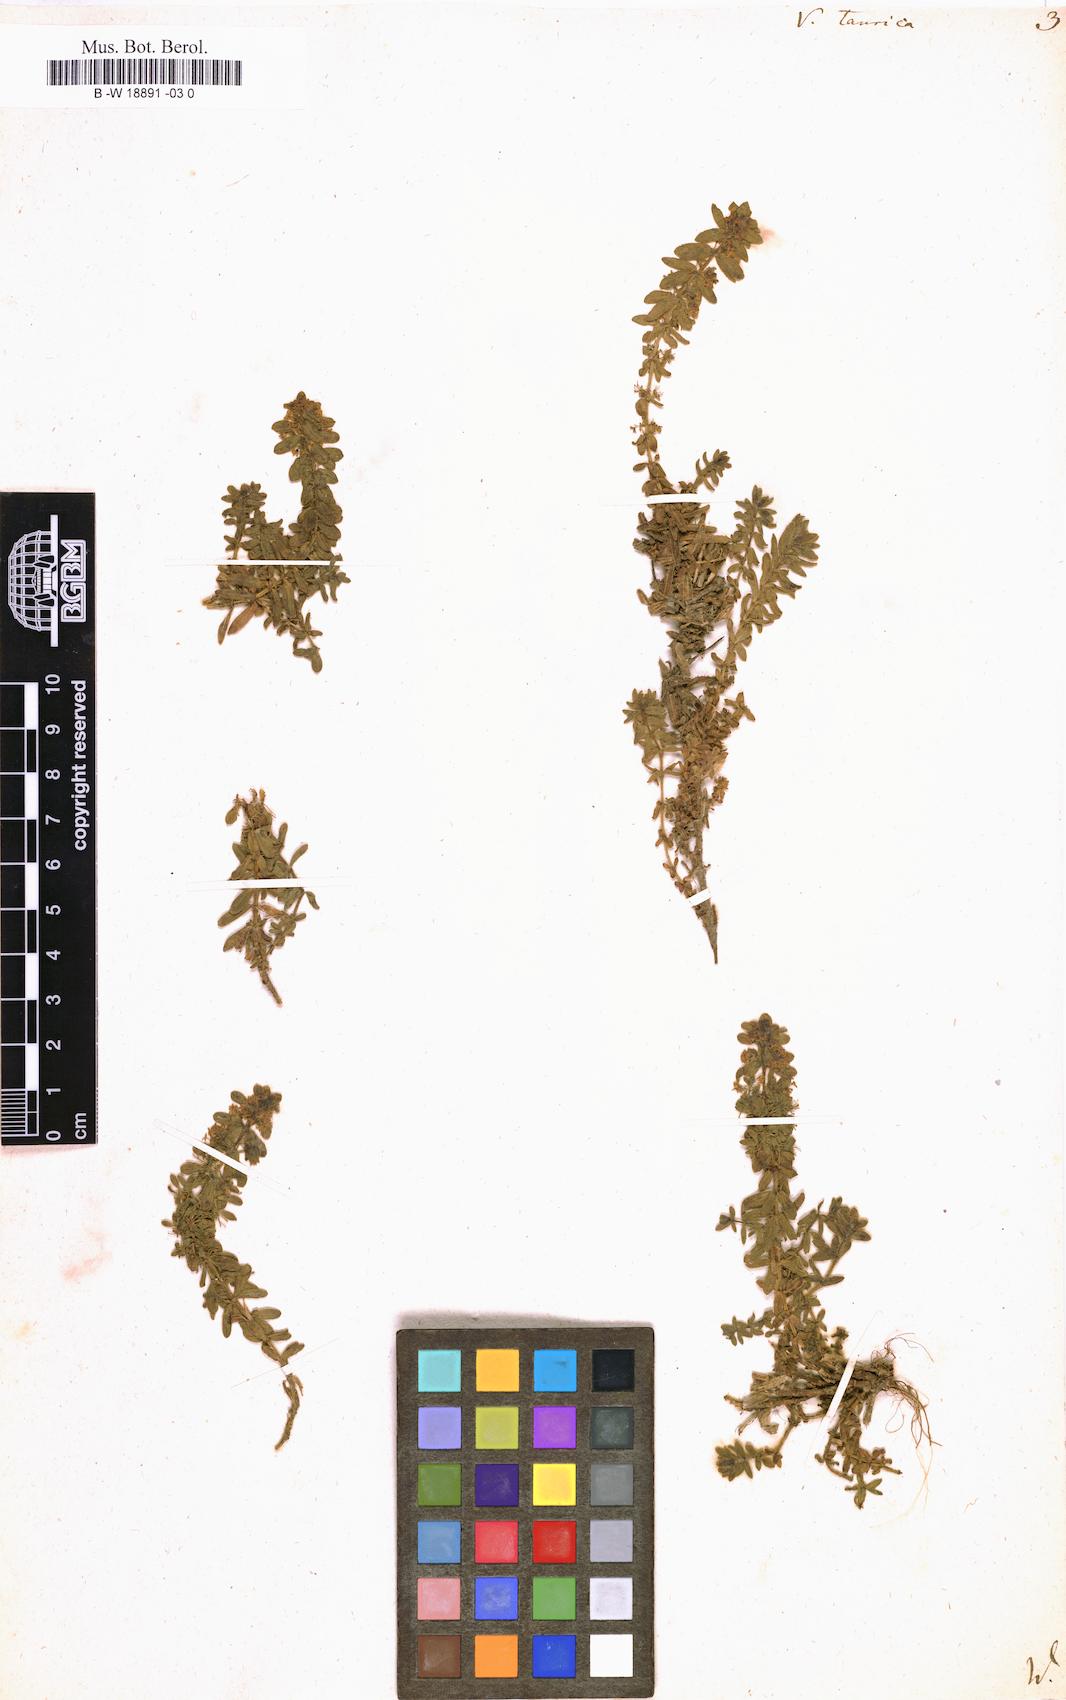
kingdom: Plantae
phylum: Tracheophyta
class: Magnoliopsida
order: Gentianales
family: Rubiaceae
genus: Cruciata
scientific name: Cruciata taurica
